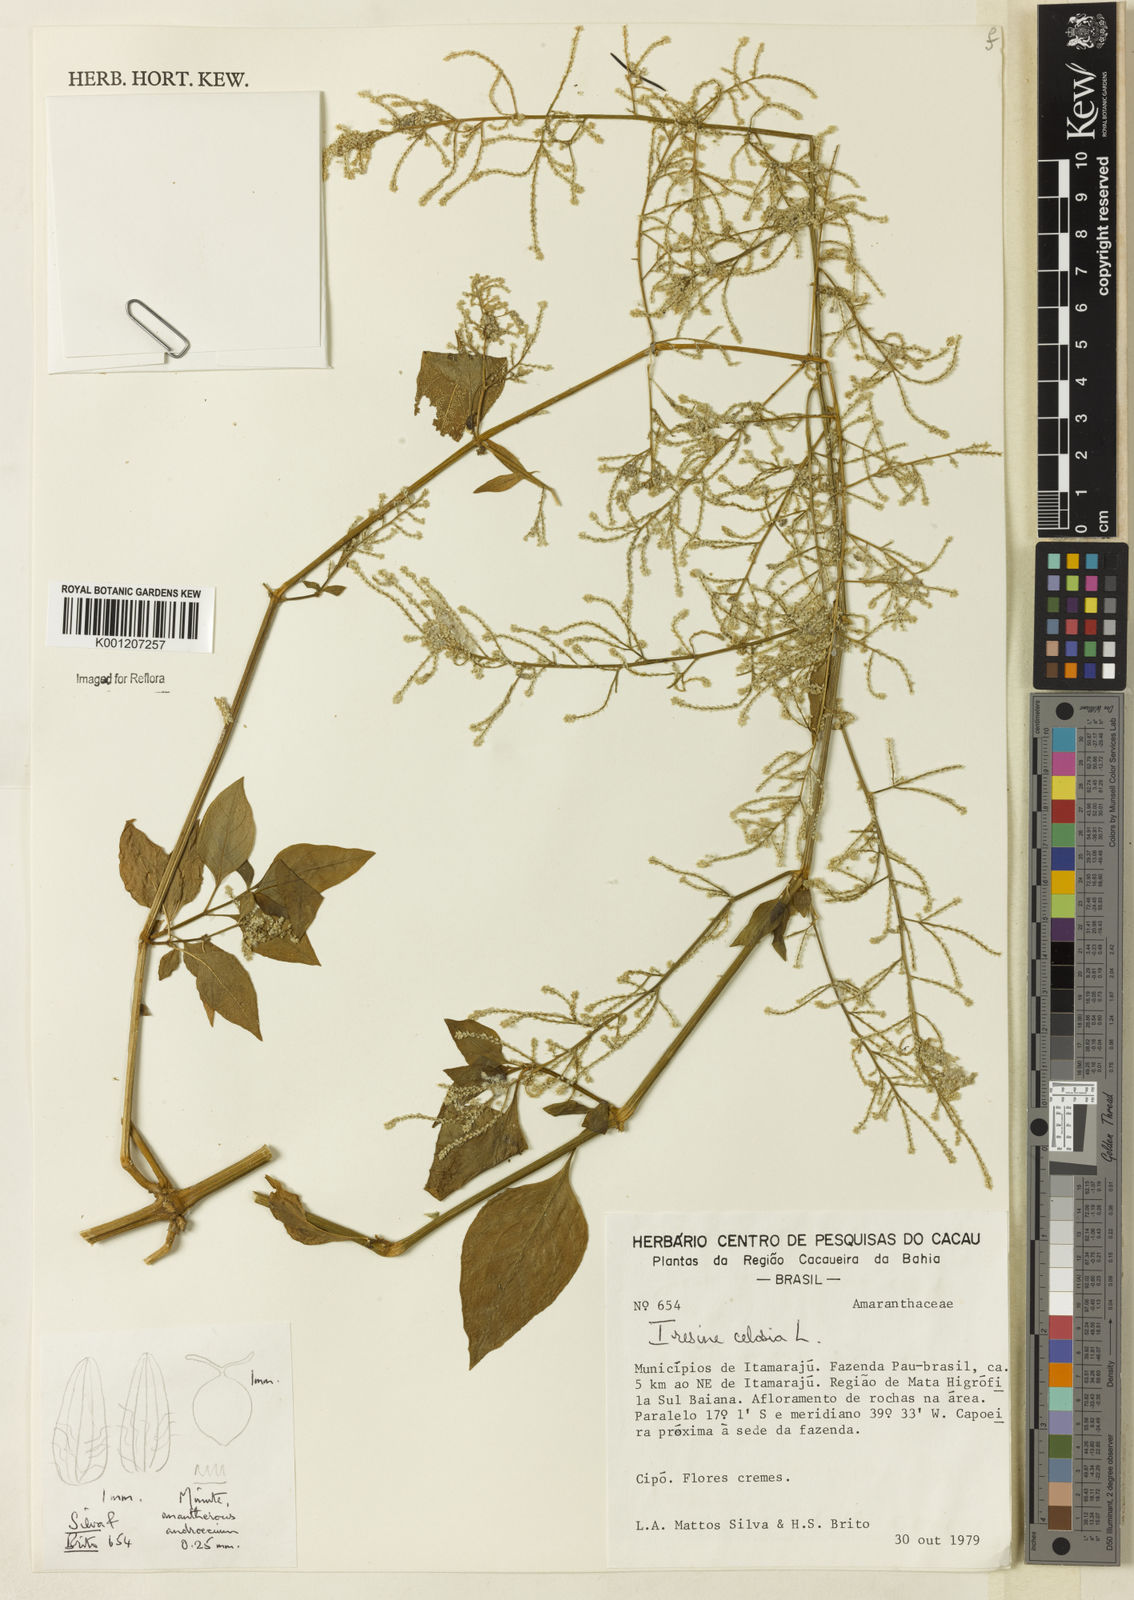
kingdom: Plantae
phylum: Tracheophyta
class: Magnoliopsida
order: Caryophyllales
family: Amaranthaceae
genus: Iresine
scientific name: Iresine rhizomatosa
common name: Juda's-bush
